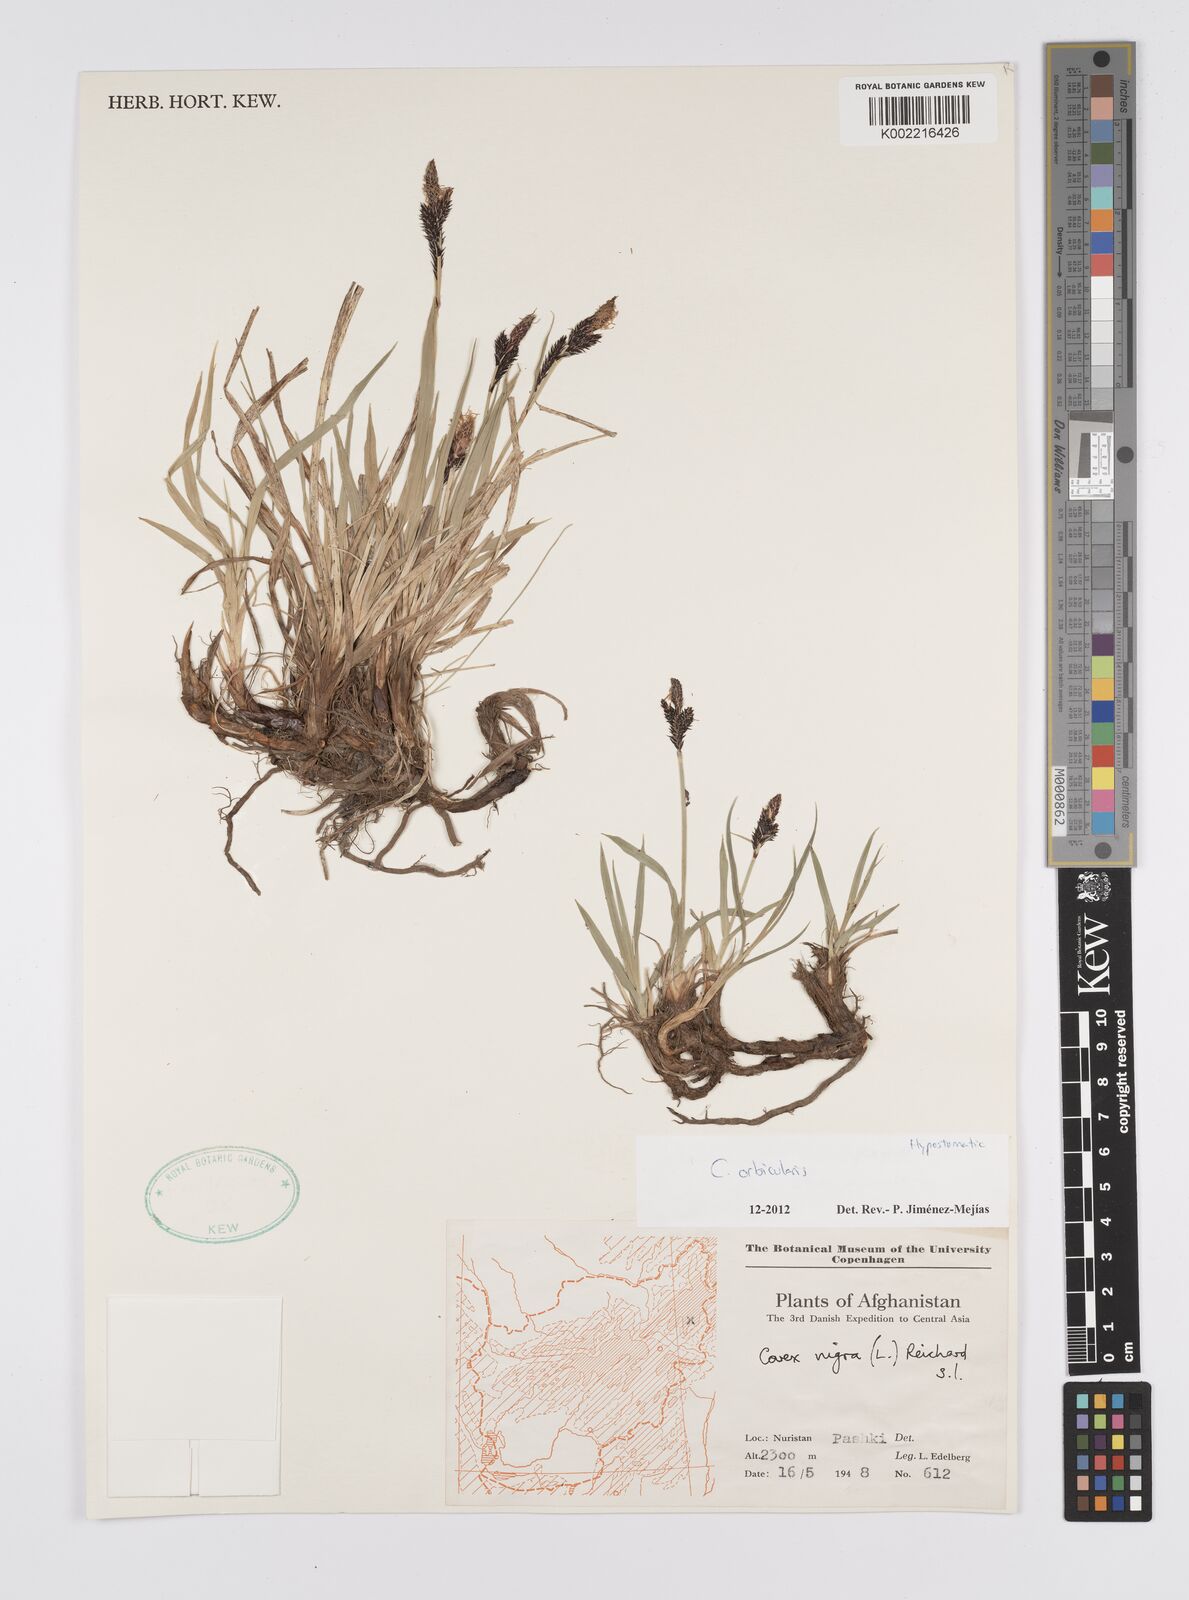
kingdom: Plantae
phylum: Tracheophyta
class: Liliopsida
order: Poales
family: Cyperaceae
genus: Carex
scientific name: Carex orbicularis
